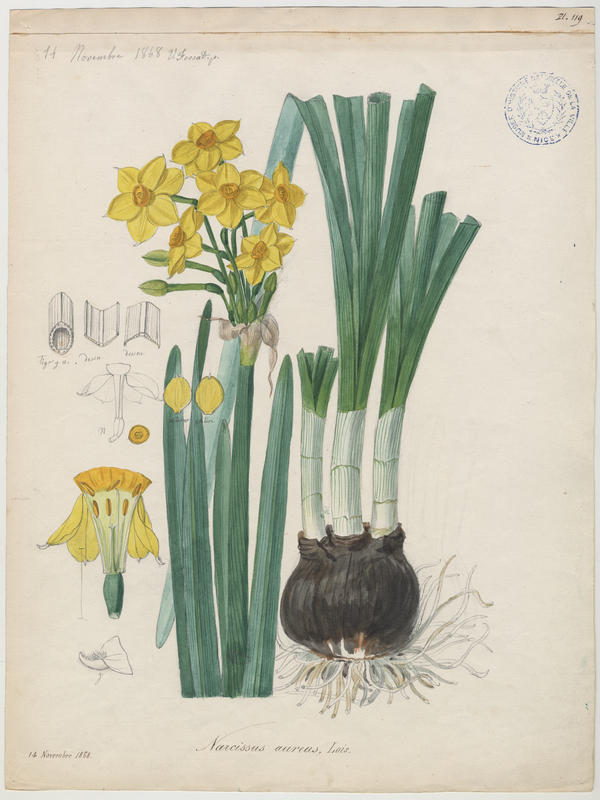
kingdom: Plantae
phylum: Tracheophyta
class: Liliopsida
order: Asparagales
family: Amaryllidaceae
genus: Narcissus
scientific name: Narcissus tazetta
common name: Bunch-flowered daffodil
